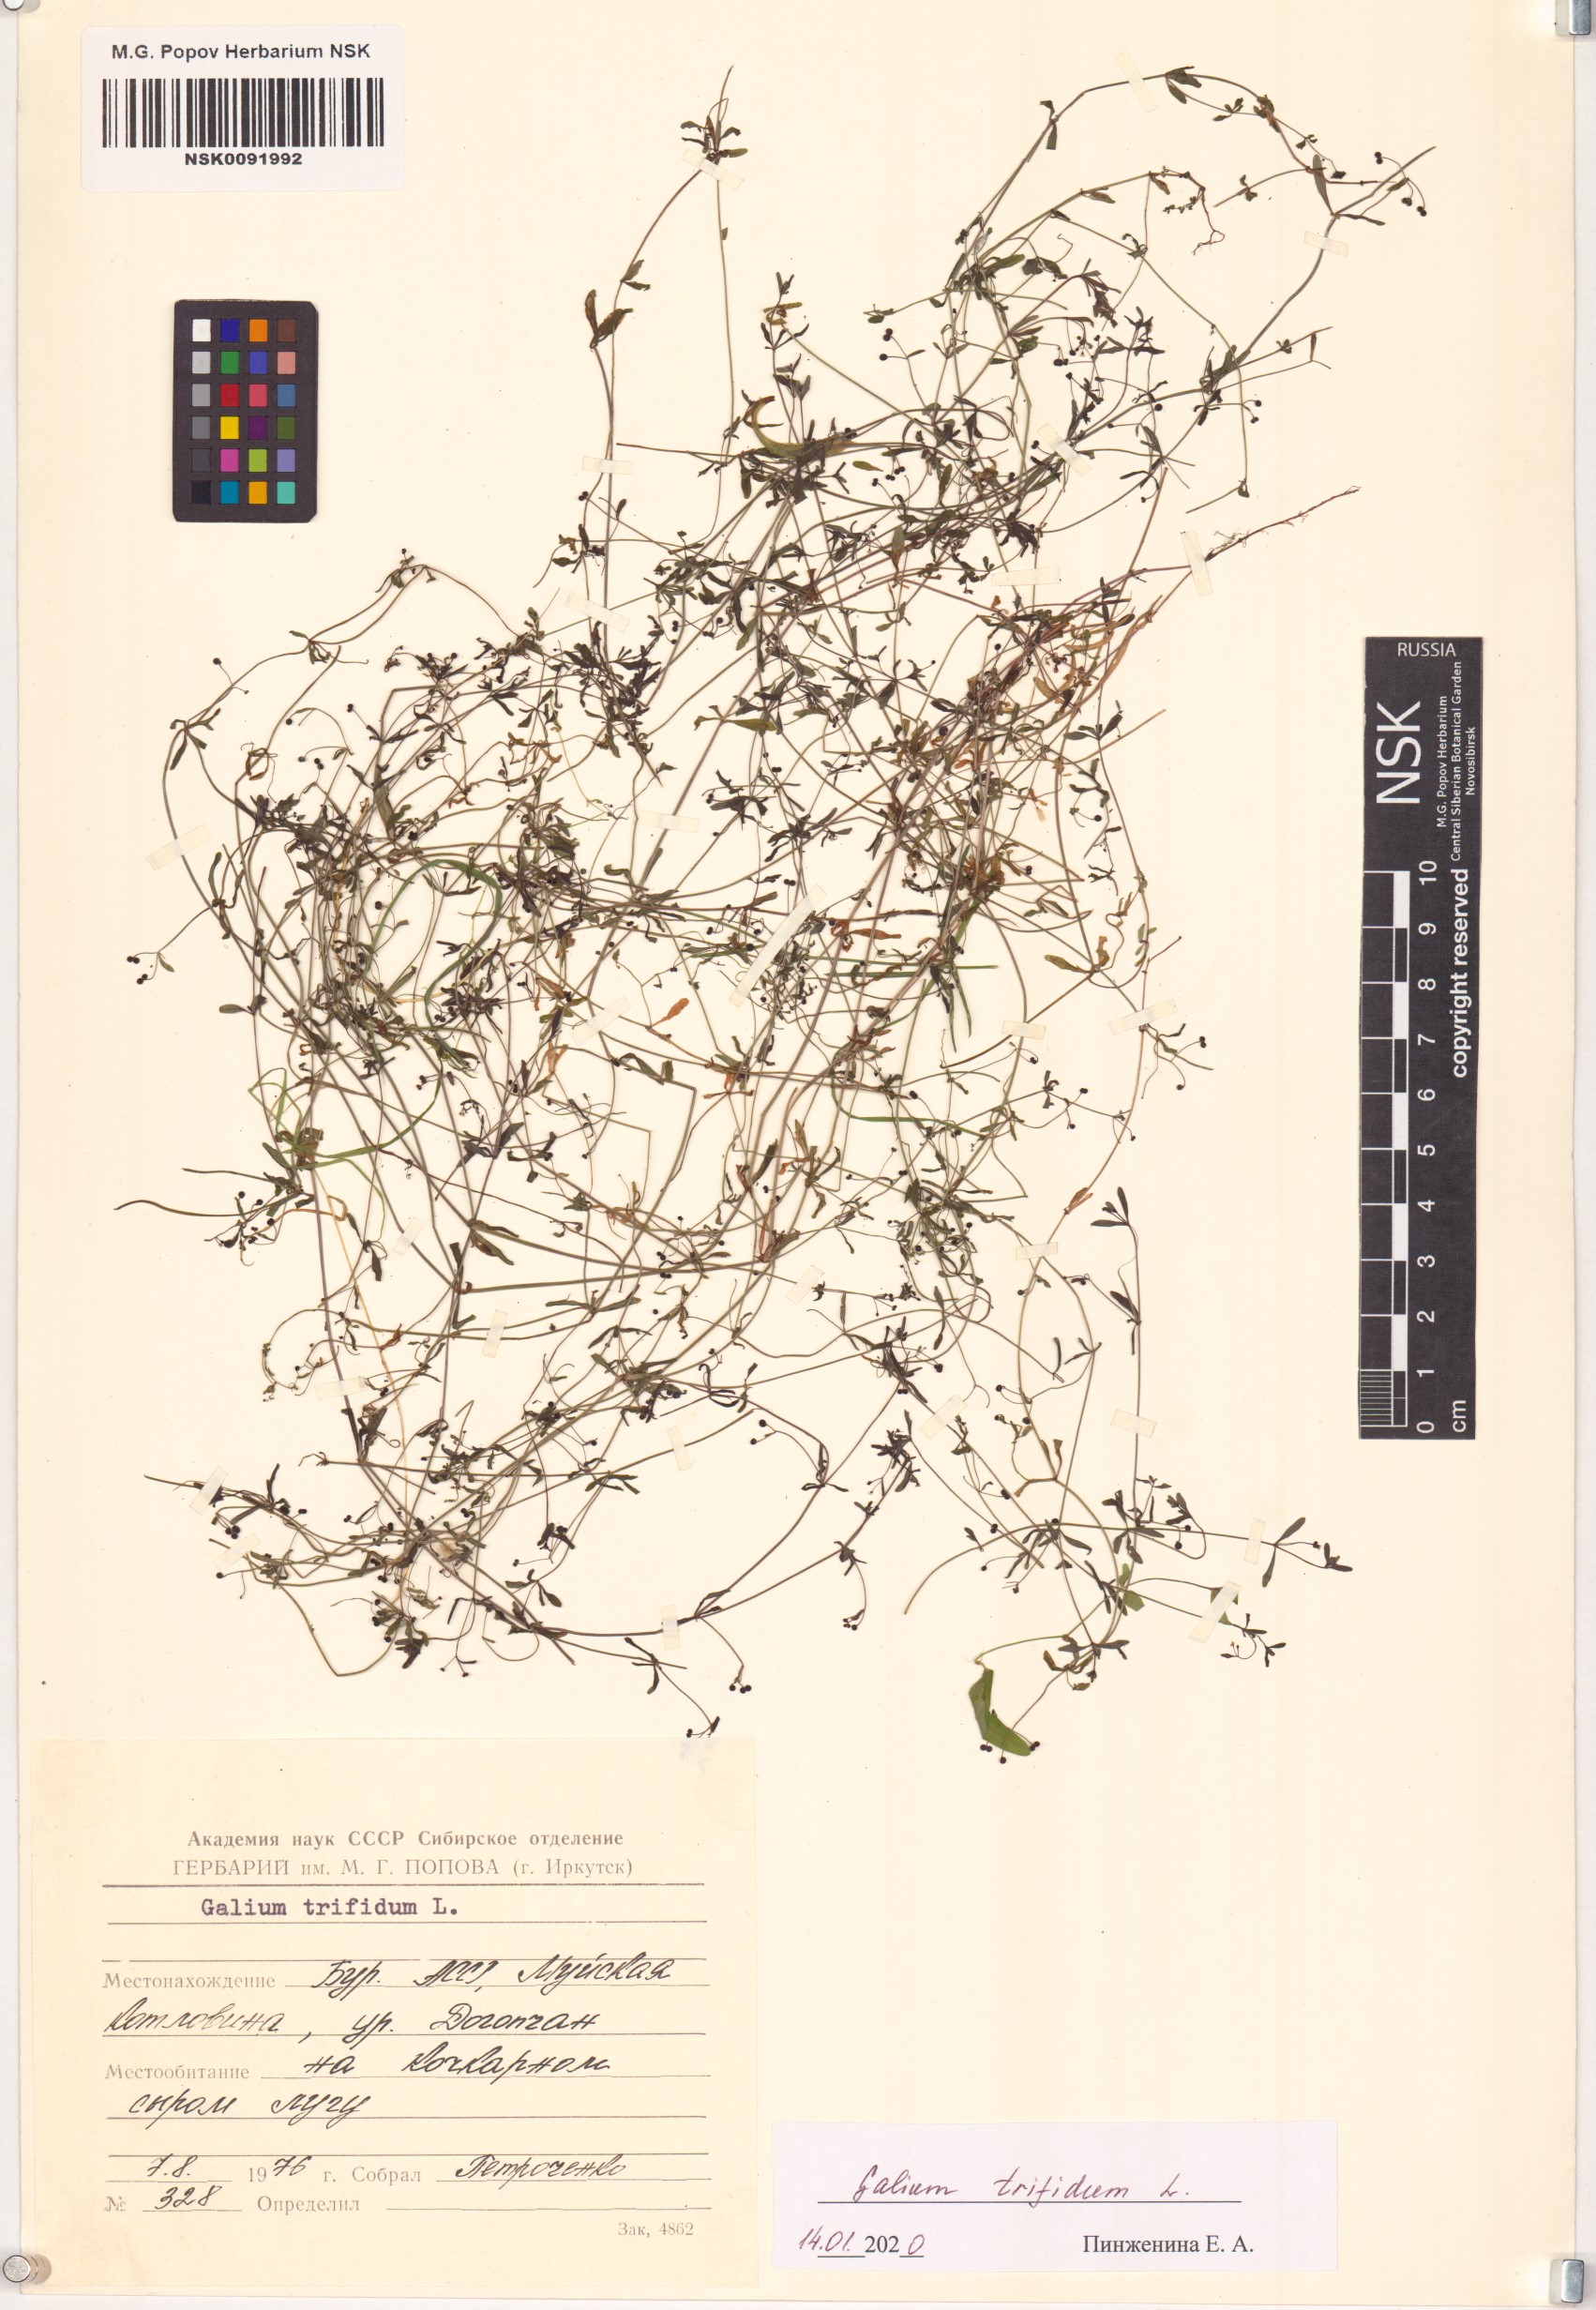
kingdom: Plantae
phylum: Tracheophyta
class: Magnoliopsida
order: Gentianales
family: Rubiaceae
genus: Galium
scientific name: Galium trifidum
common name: Small bedstraw
